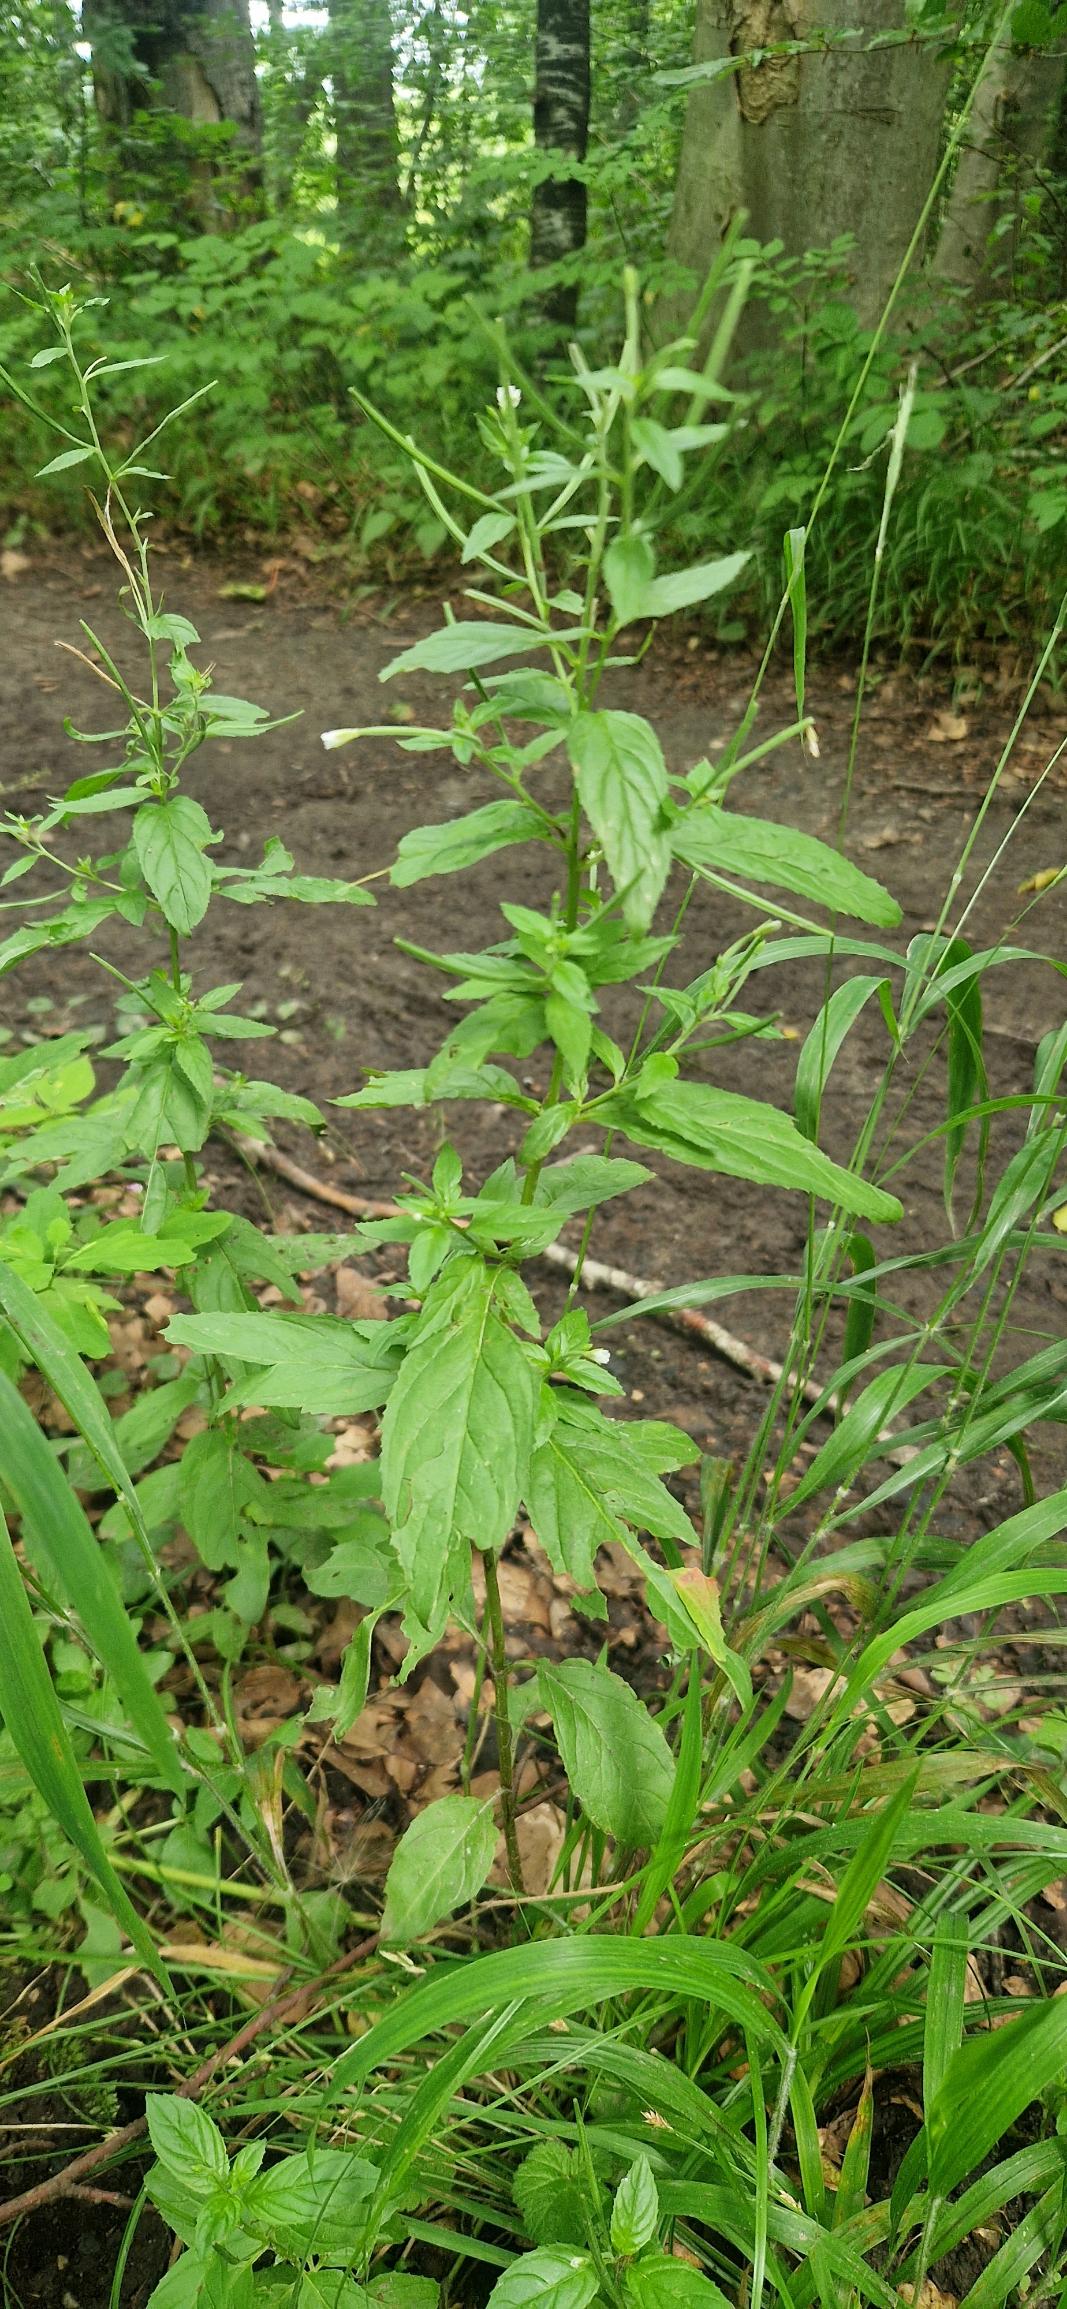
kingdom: Plantae
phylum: Tracheophyta
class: Magnoliopsida
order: Myrtales
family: Onagraceae
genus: Epilobium
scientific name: Epilobium roseum
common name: Rosen-dueurt
